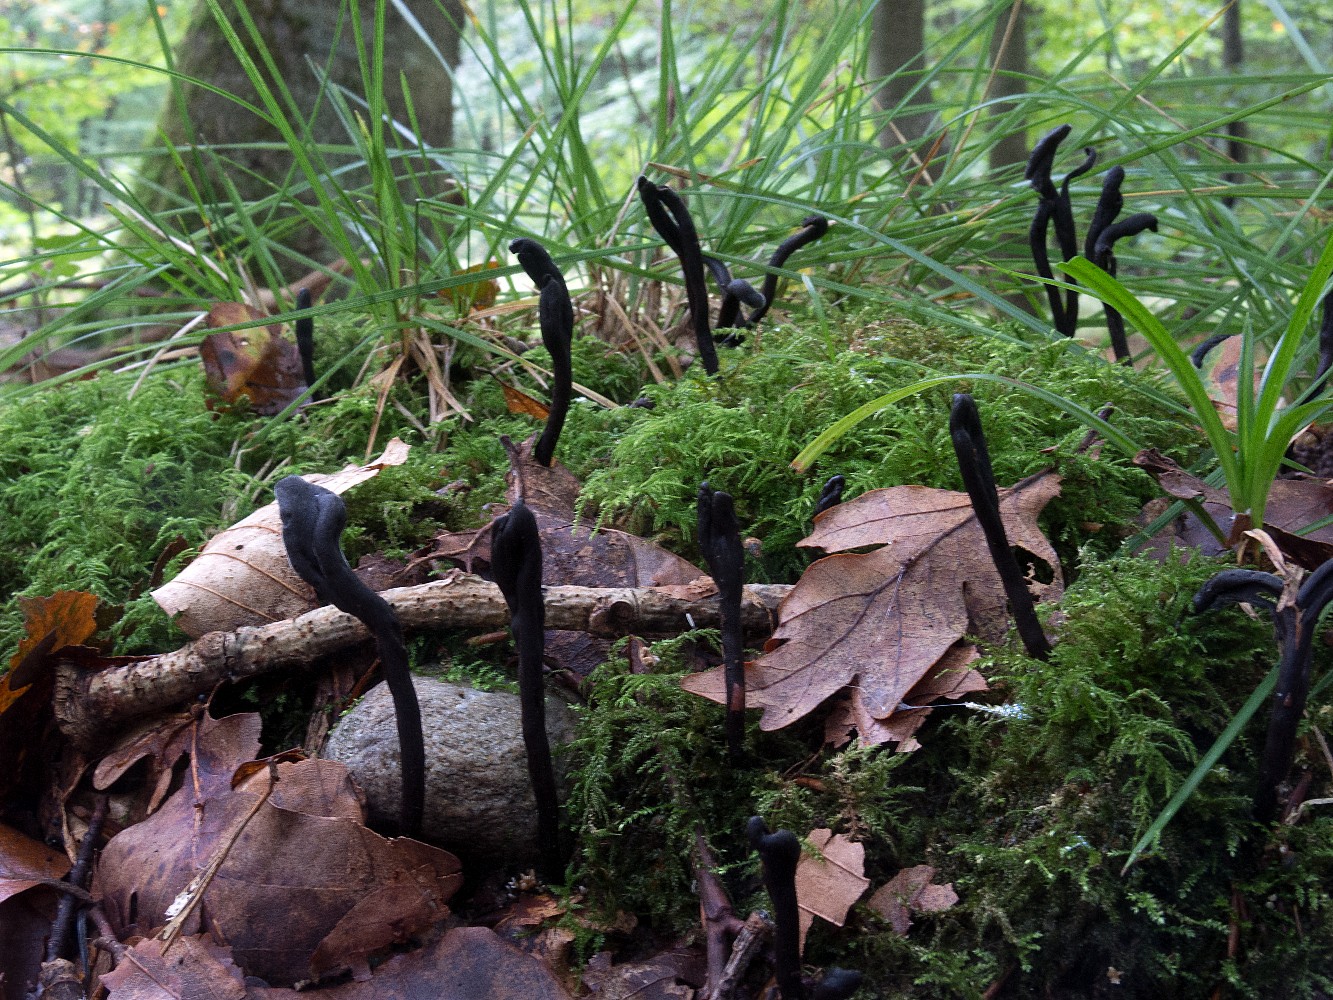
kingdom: Fungi
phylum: Ascomycota
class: Geoglossomycetes
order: Geoglossales
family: Geoglossaceae
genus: Geoglossum
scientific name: Geoglossum umbratile
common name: slank jordtunge
